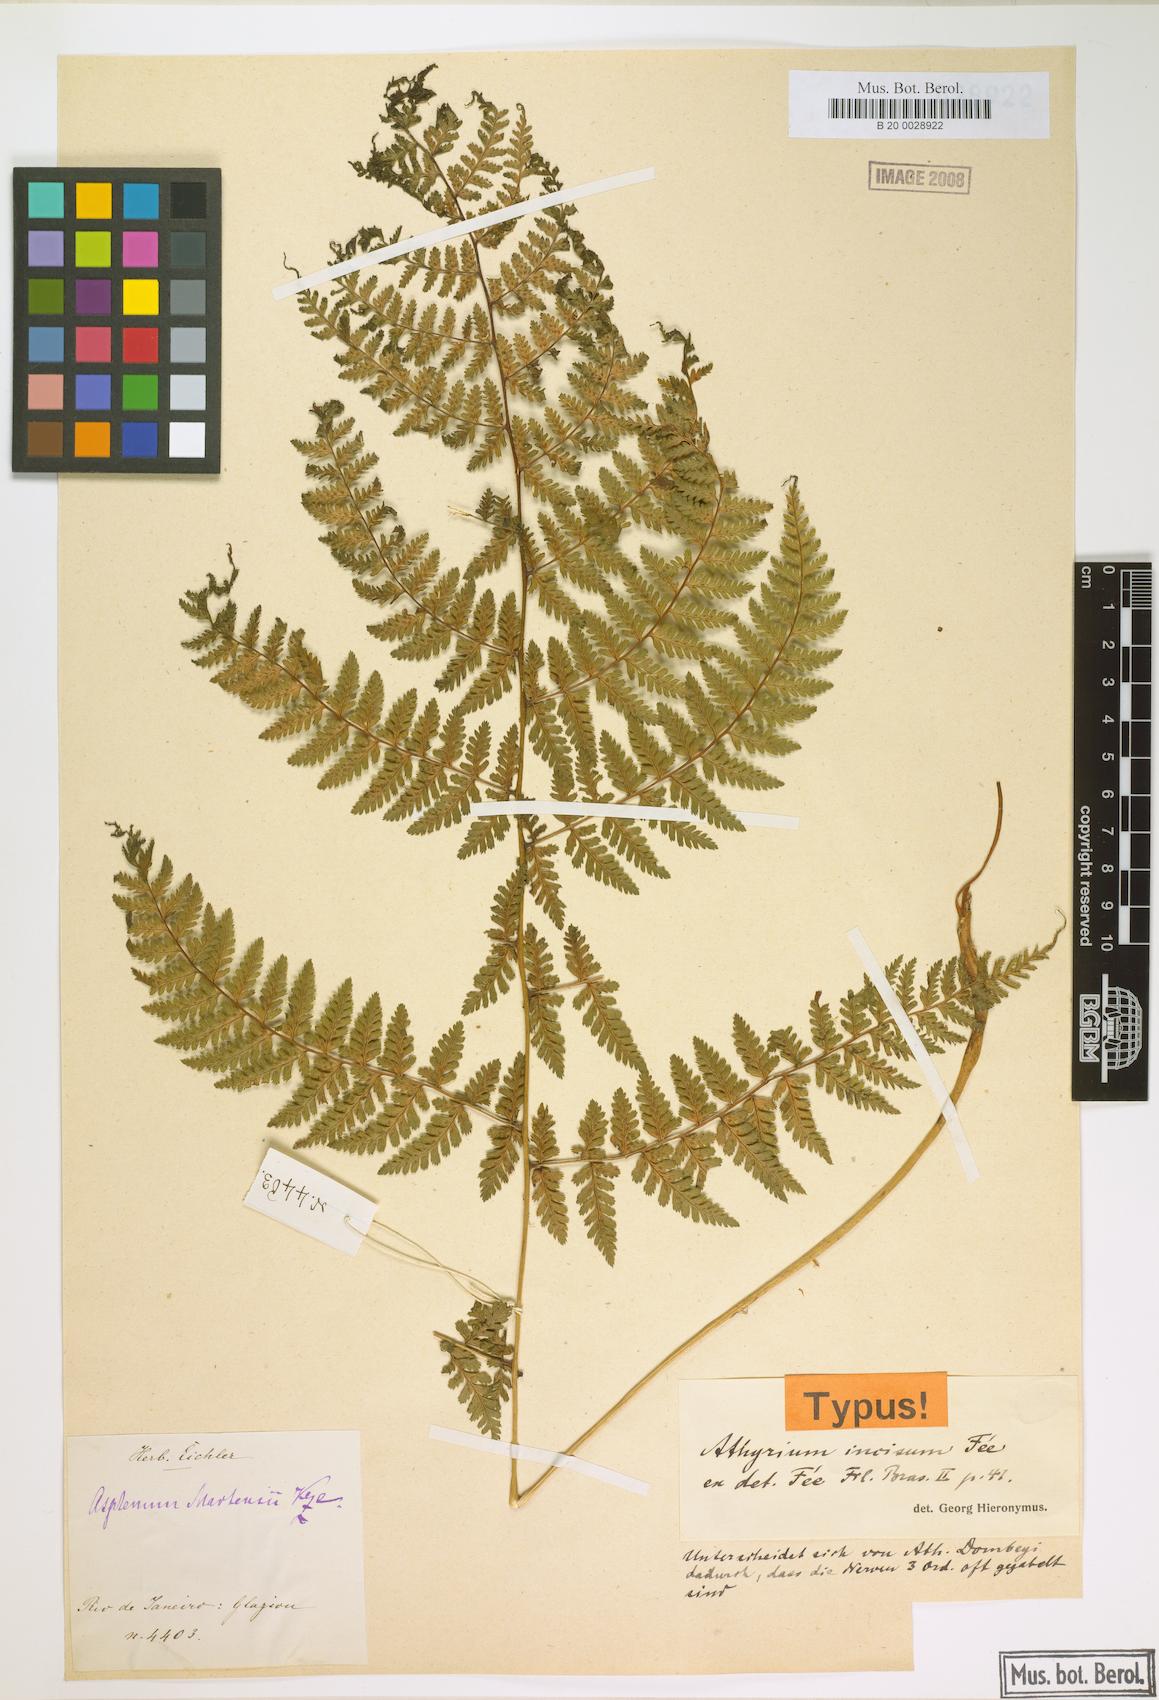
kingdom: Plantae
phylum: Tracheophyta
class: Polypodiopsida
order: Polypodiales
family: Athyriaceae
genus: Athyrium
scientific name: Athyrium dombeyi
